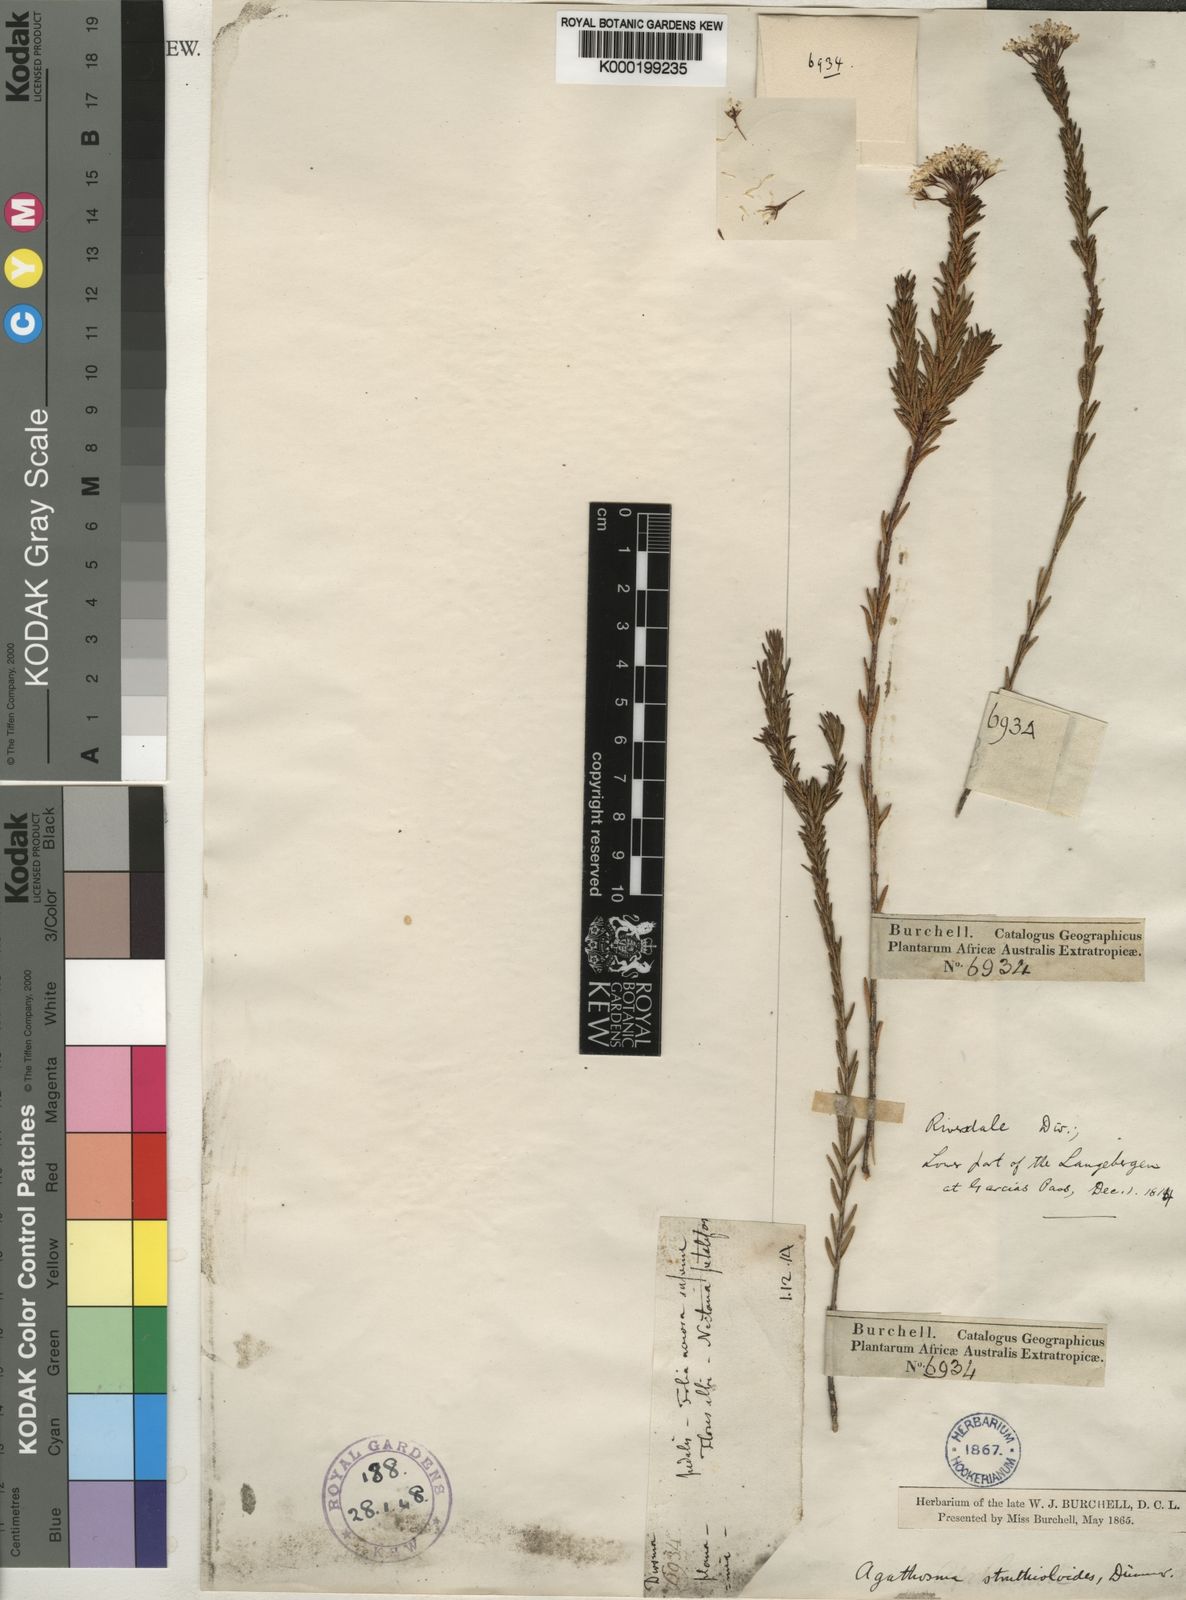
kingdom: Plantae
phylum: Tracheophyta
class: Magnoliopsida
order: Sapindales
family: Rutaceae
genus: Agathosma
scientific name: Agathosma bifida
